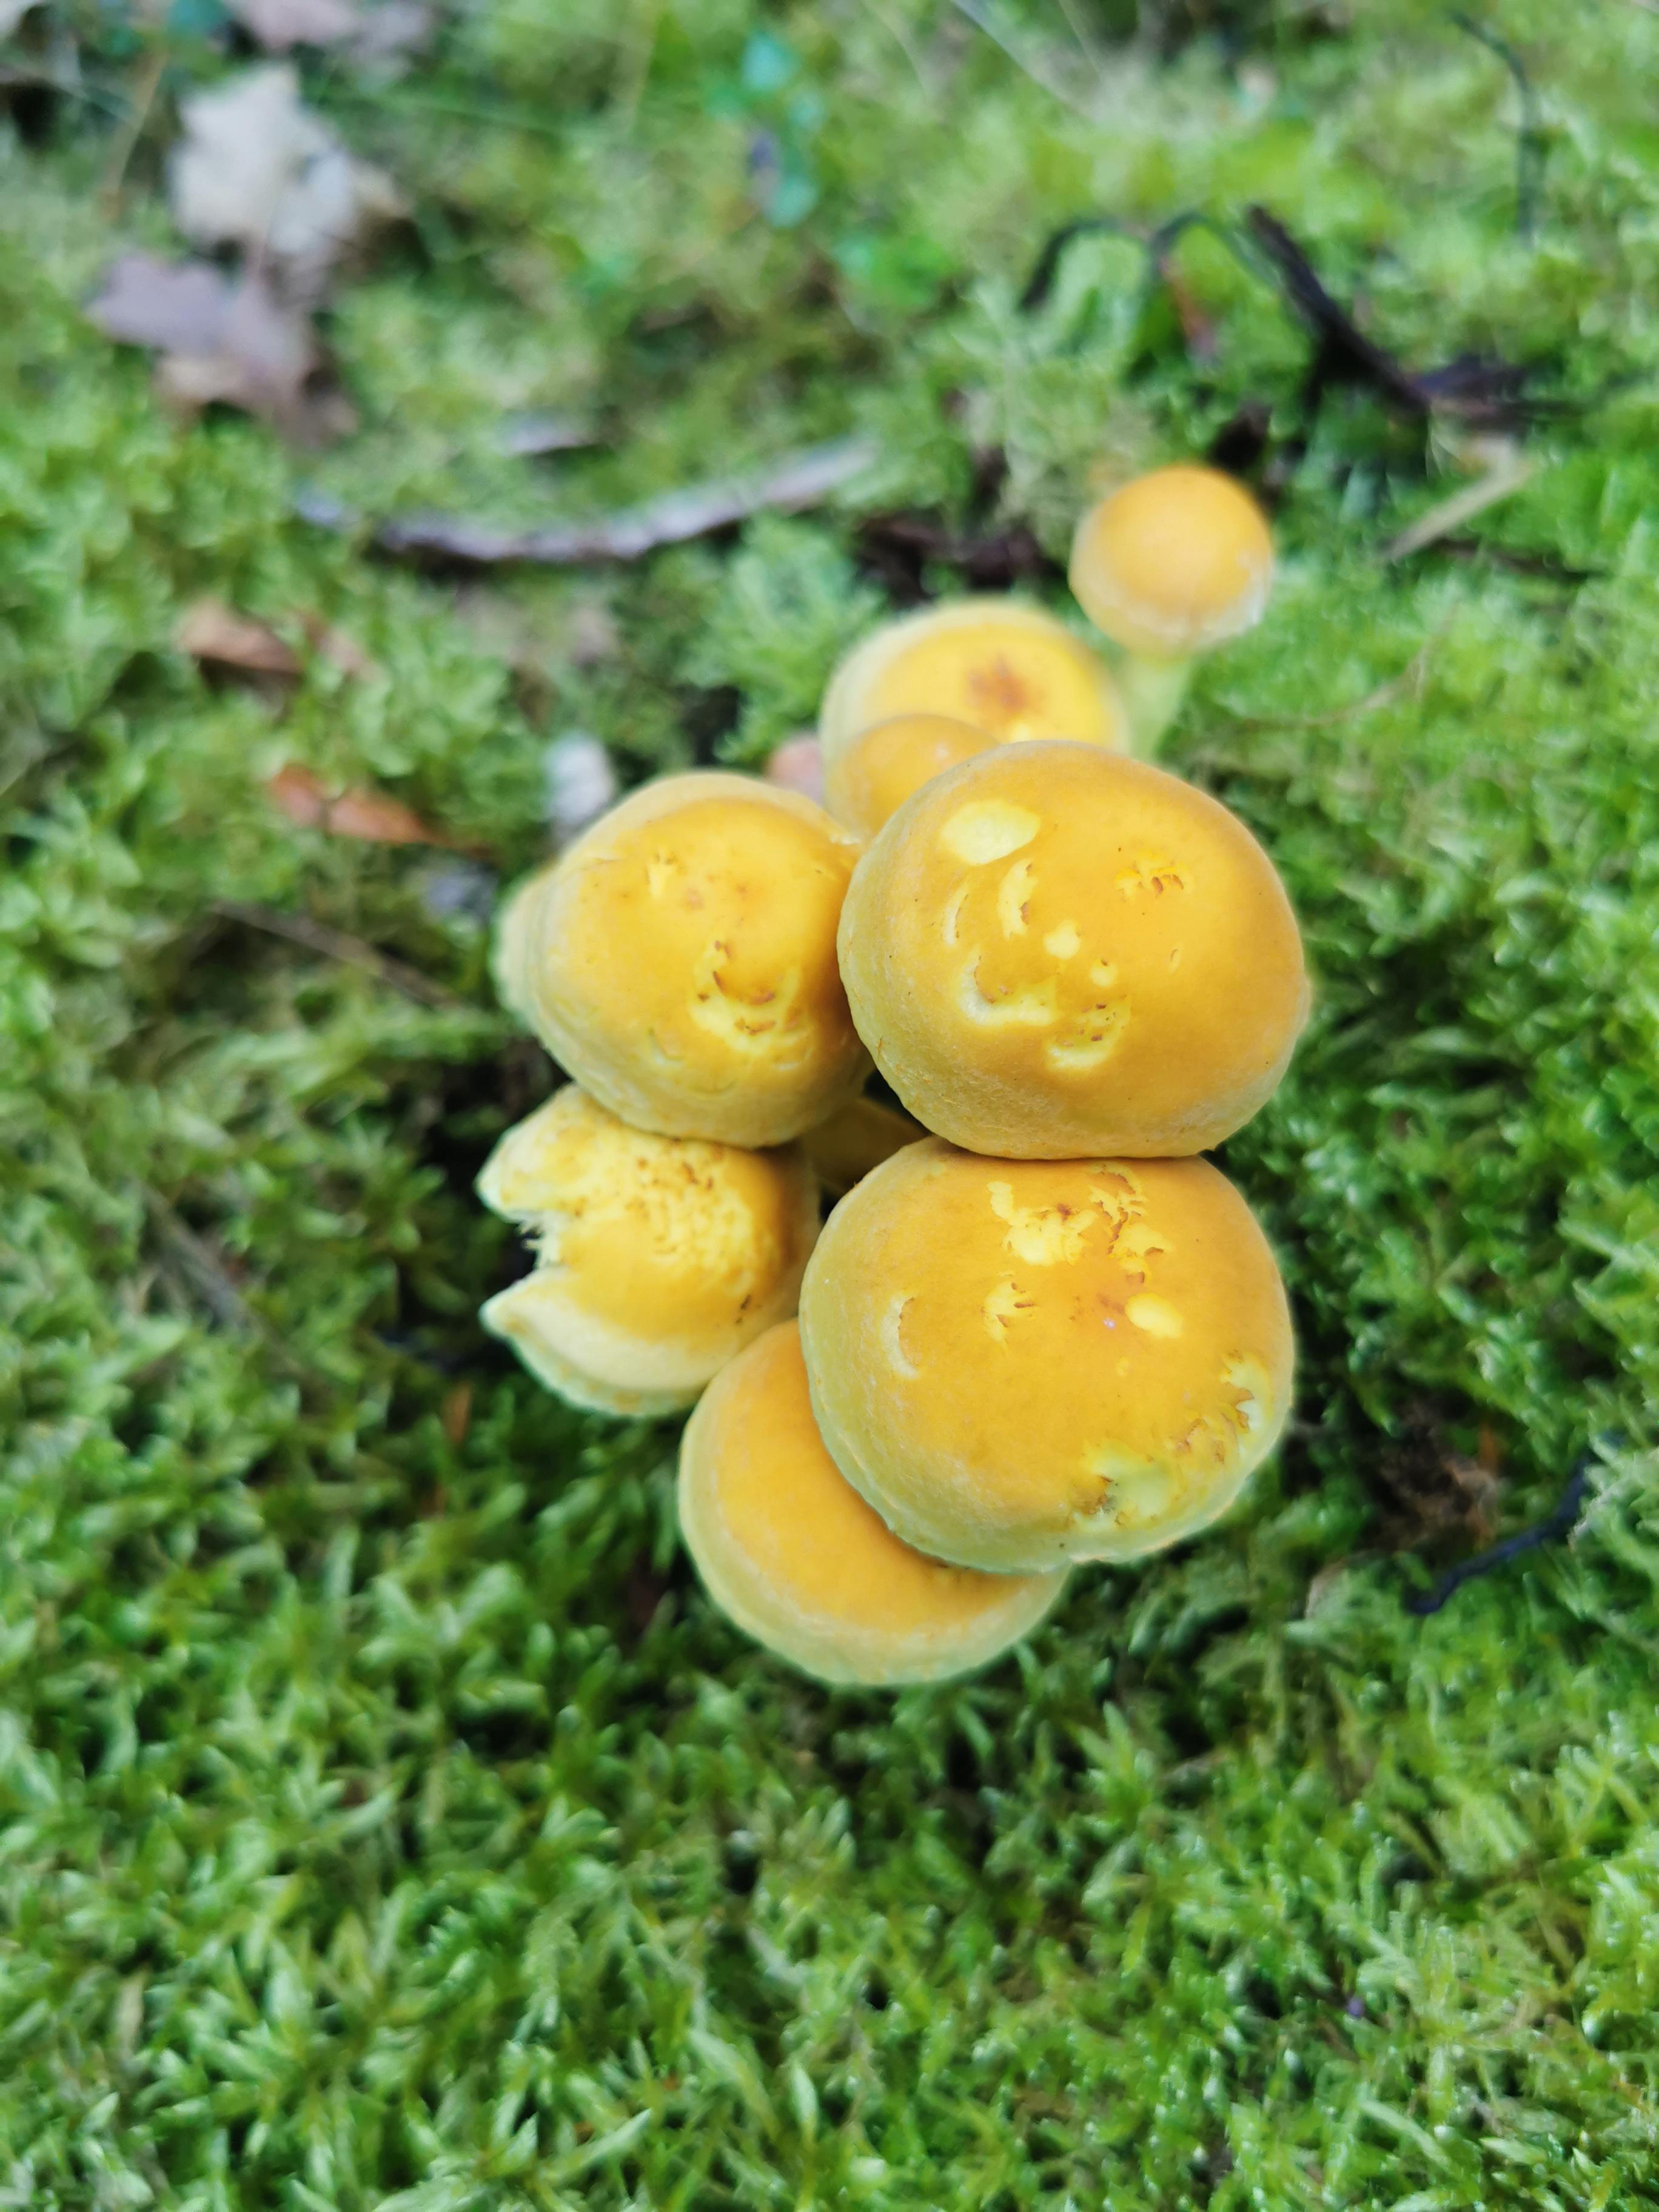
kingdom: Fungi
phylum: Basidiomycota
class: Agaricomycetes
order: Agaricales
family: Strophariaceae
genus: Hypholoma
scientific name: Hypholoma fasciculare
